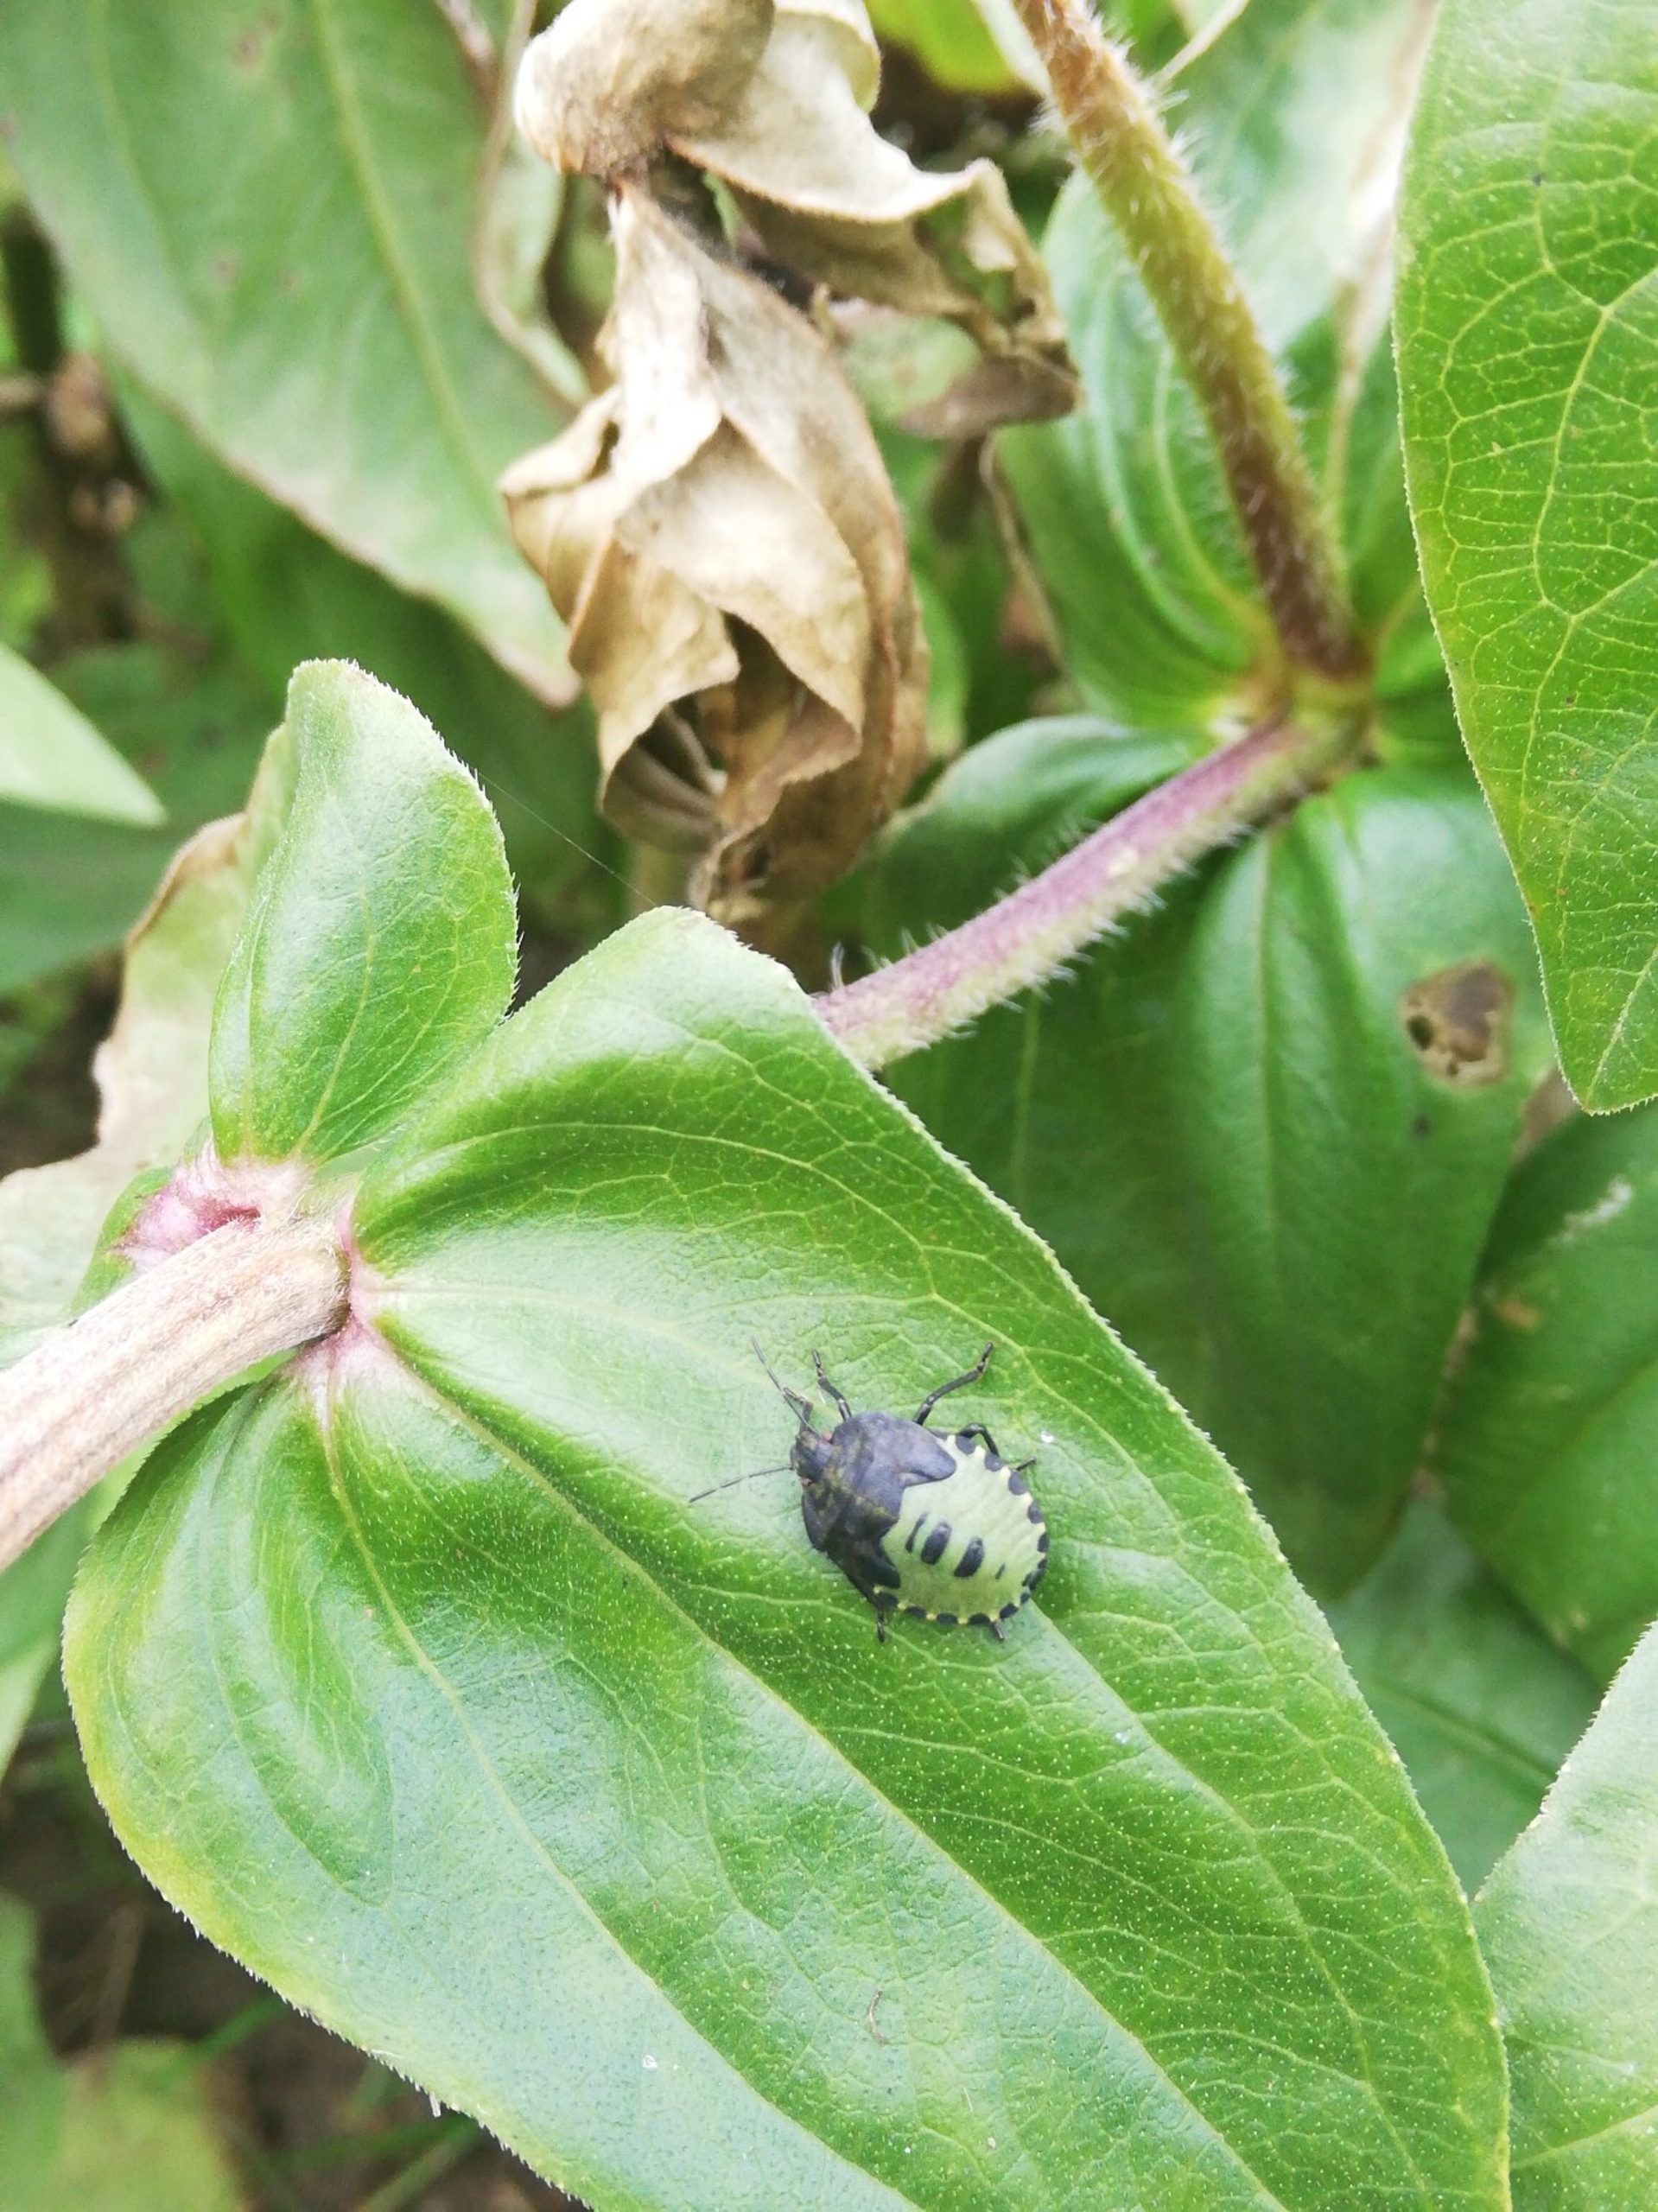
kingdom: Animalia
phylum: Arthropoda
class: Insecta
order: Hemiptera
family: Pentatomidae
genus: Palomena
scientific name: Palomena prasina
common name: Grøn bredtæge
